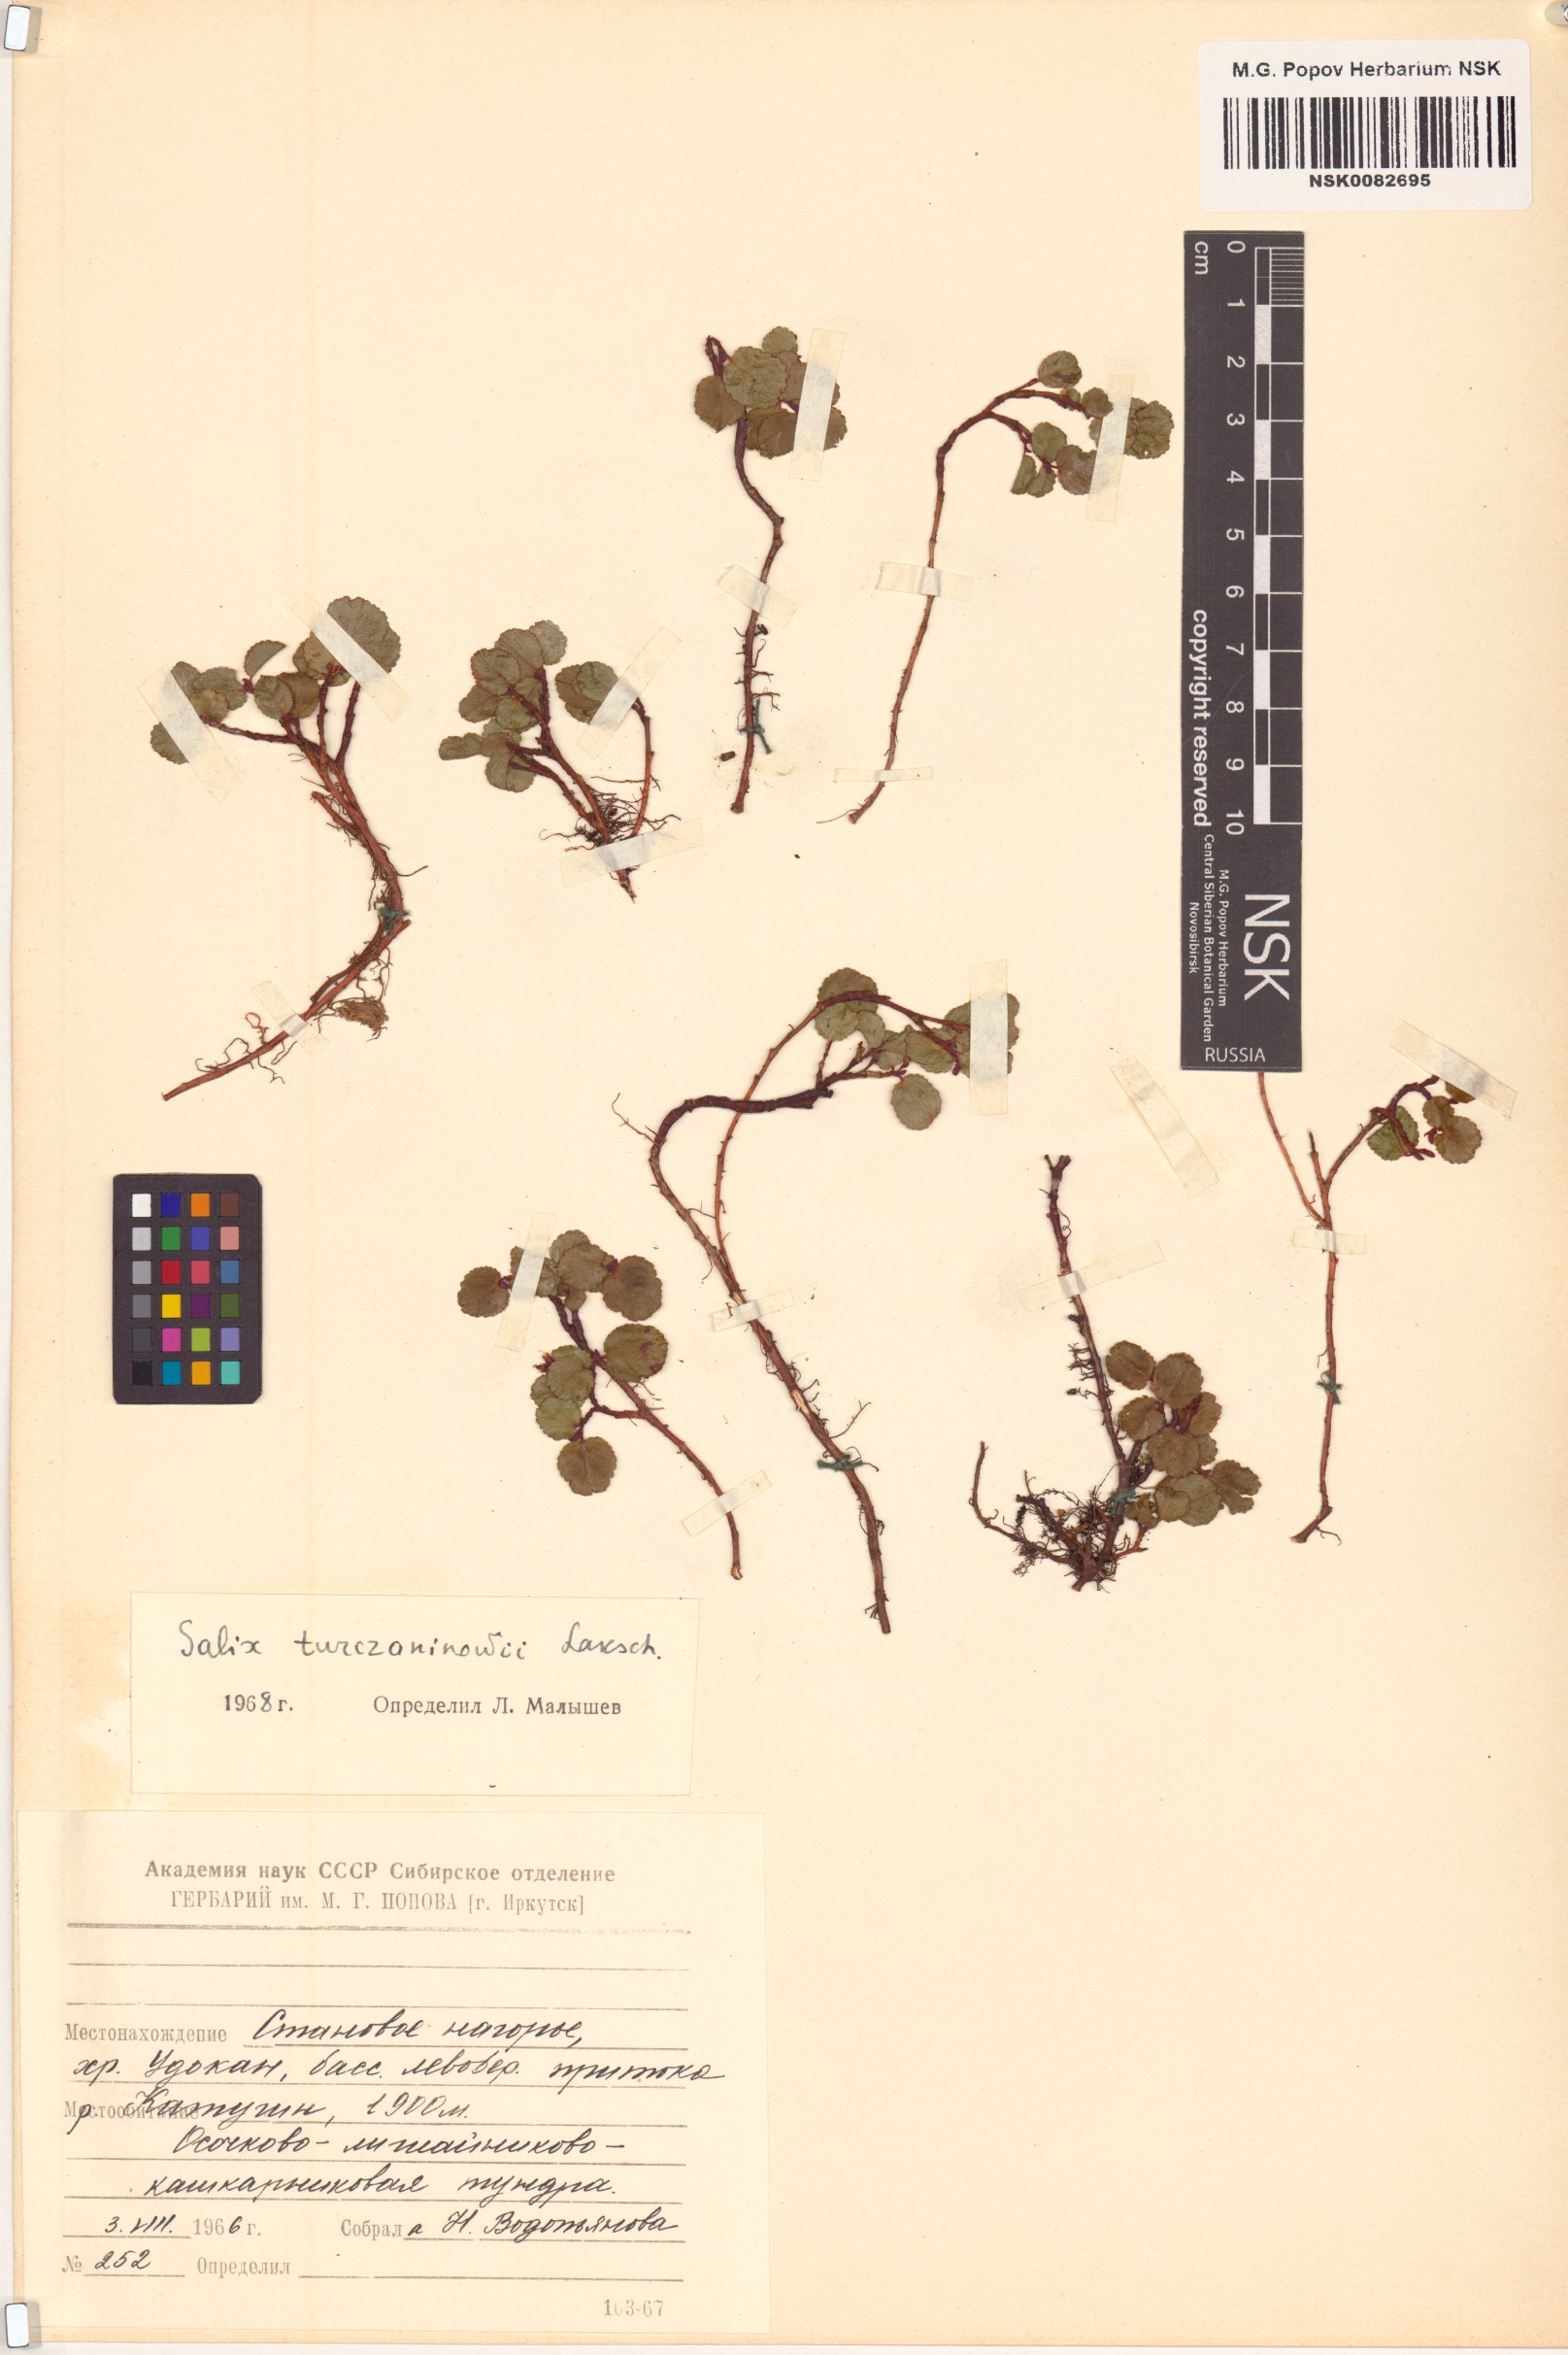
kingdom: Plantae
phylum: Tracheophyta
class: Magnoliopsida
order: Malpighiales
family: Salicaceae
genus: Salix
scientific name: Salix turczaninowii
